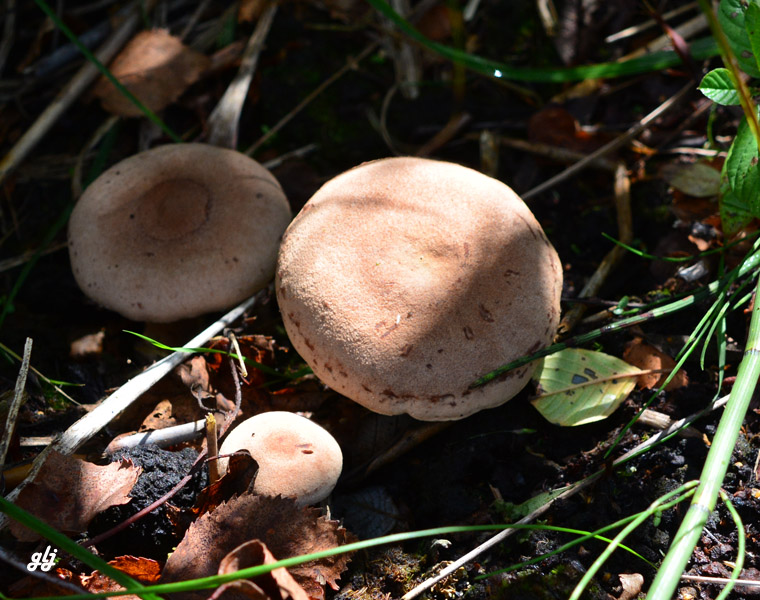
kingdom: Fungi
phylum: Basidiomycota
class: Agaricomycetes
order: Russulales
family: Russulaceae
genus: Lactarius
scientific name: Lactarius helvus
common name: mose-mælkehat
